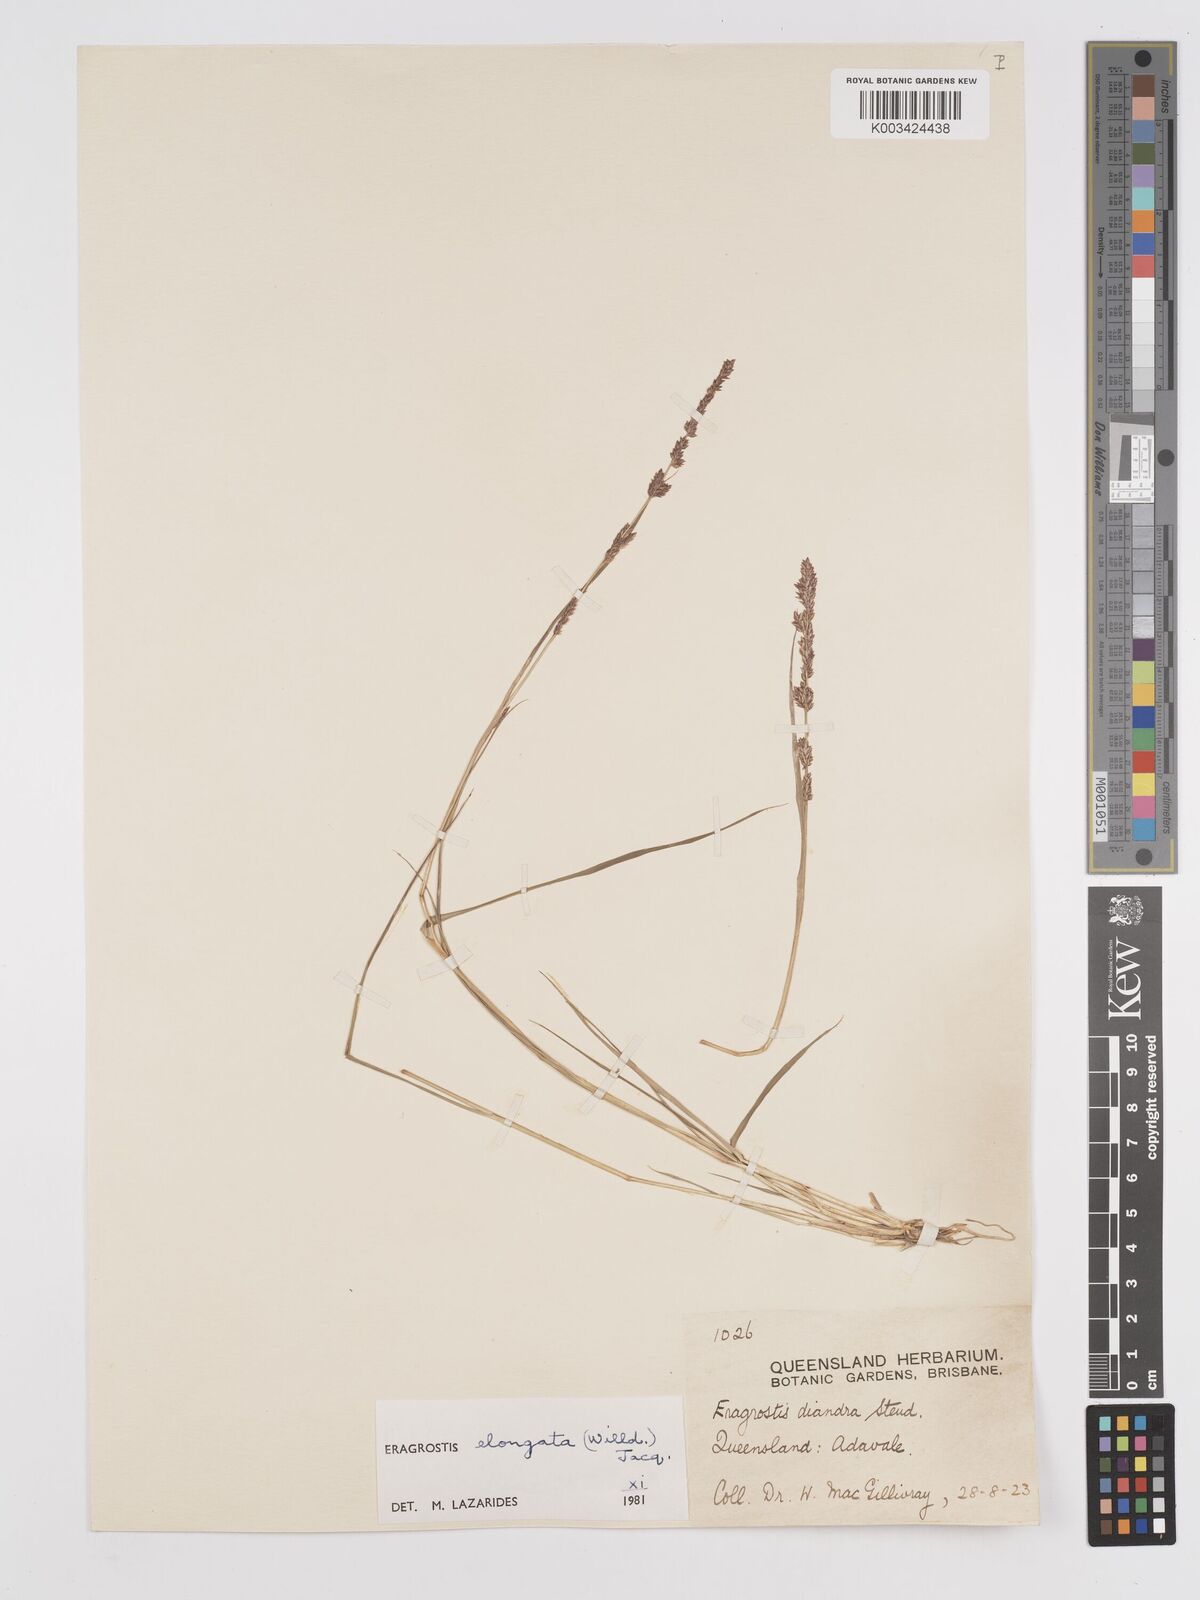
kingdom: Plantae
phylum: Tracheophyta
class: Liliopsida
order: Poales
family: Poaceae
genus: Eragrostis
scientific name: Eragrostis elongata
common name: Long lovegrass
